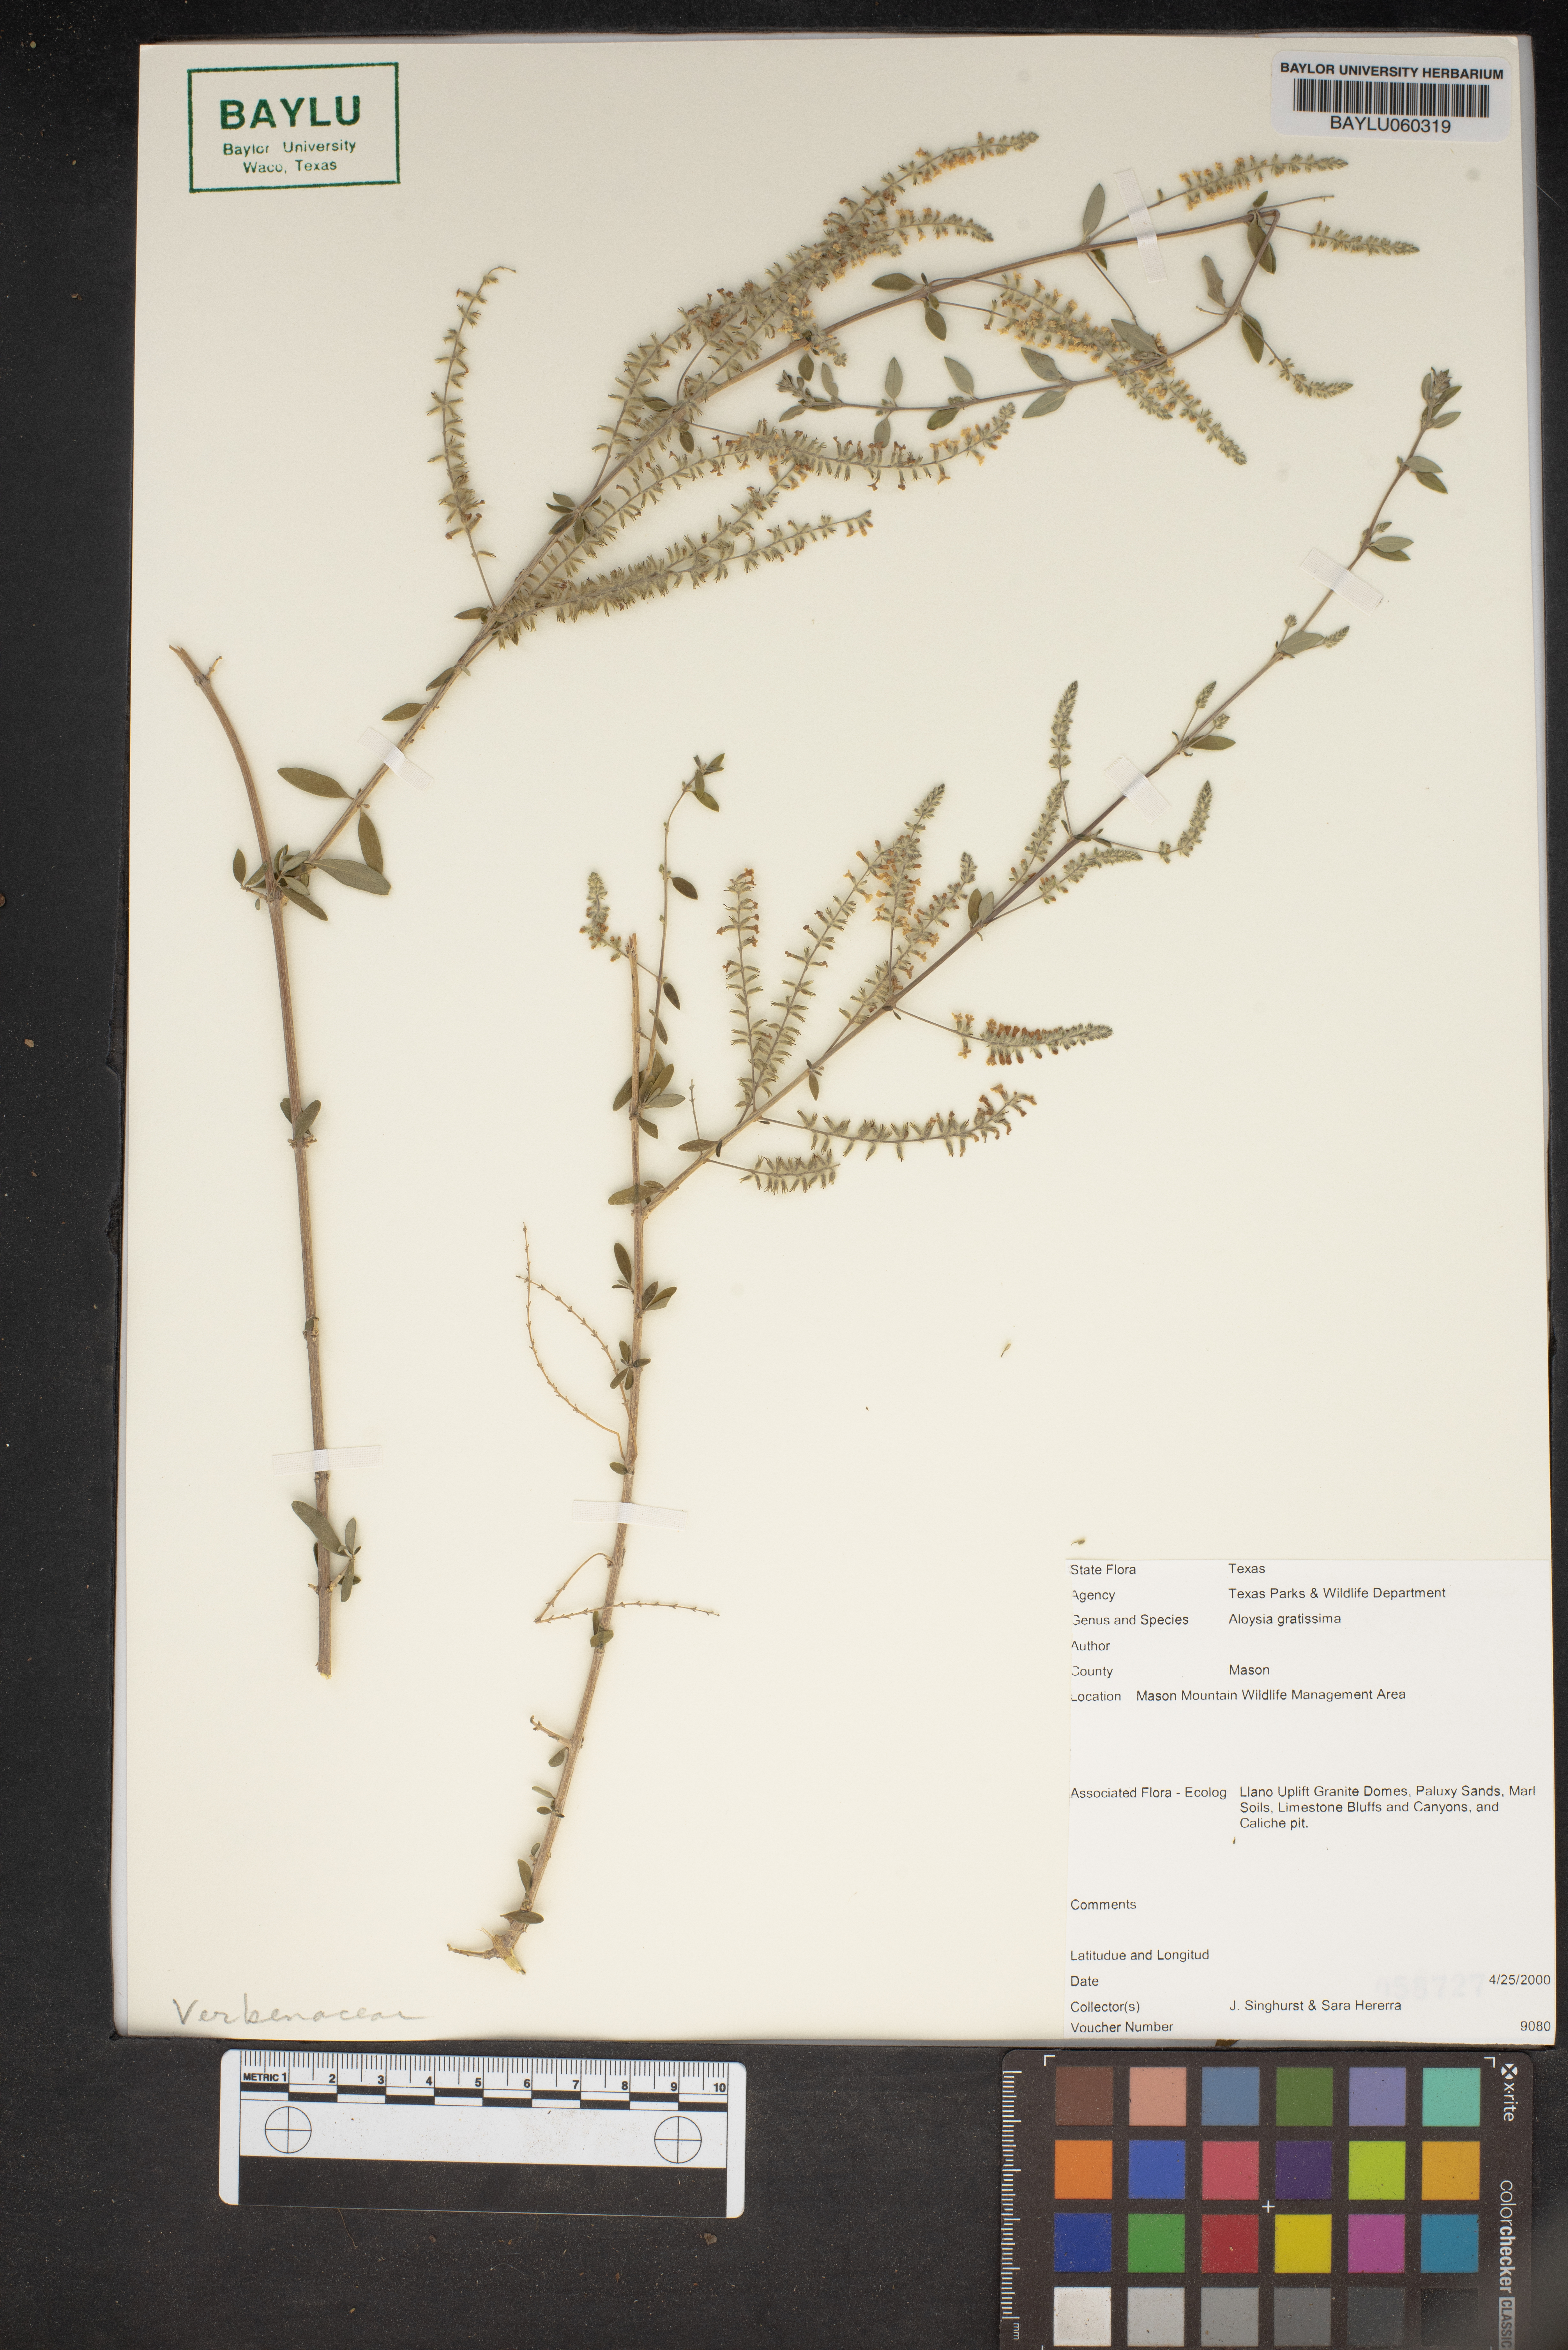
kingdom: Plantae
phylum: Tracheophyta
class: Magnoliopsida
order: Lamiales
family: Verbenaceae
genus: Aloysia
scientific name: Aloysia gratissima
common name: Common bee-brush
